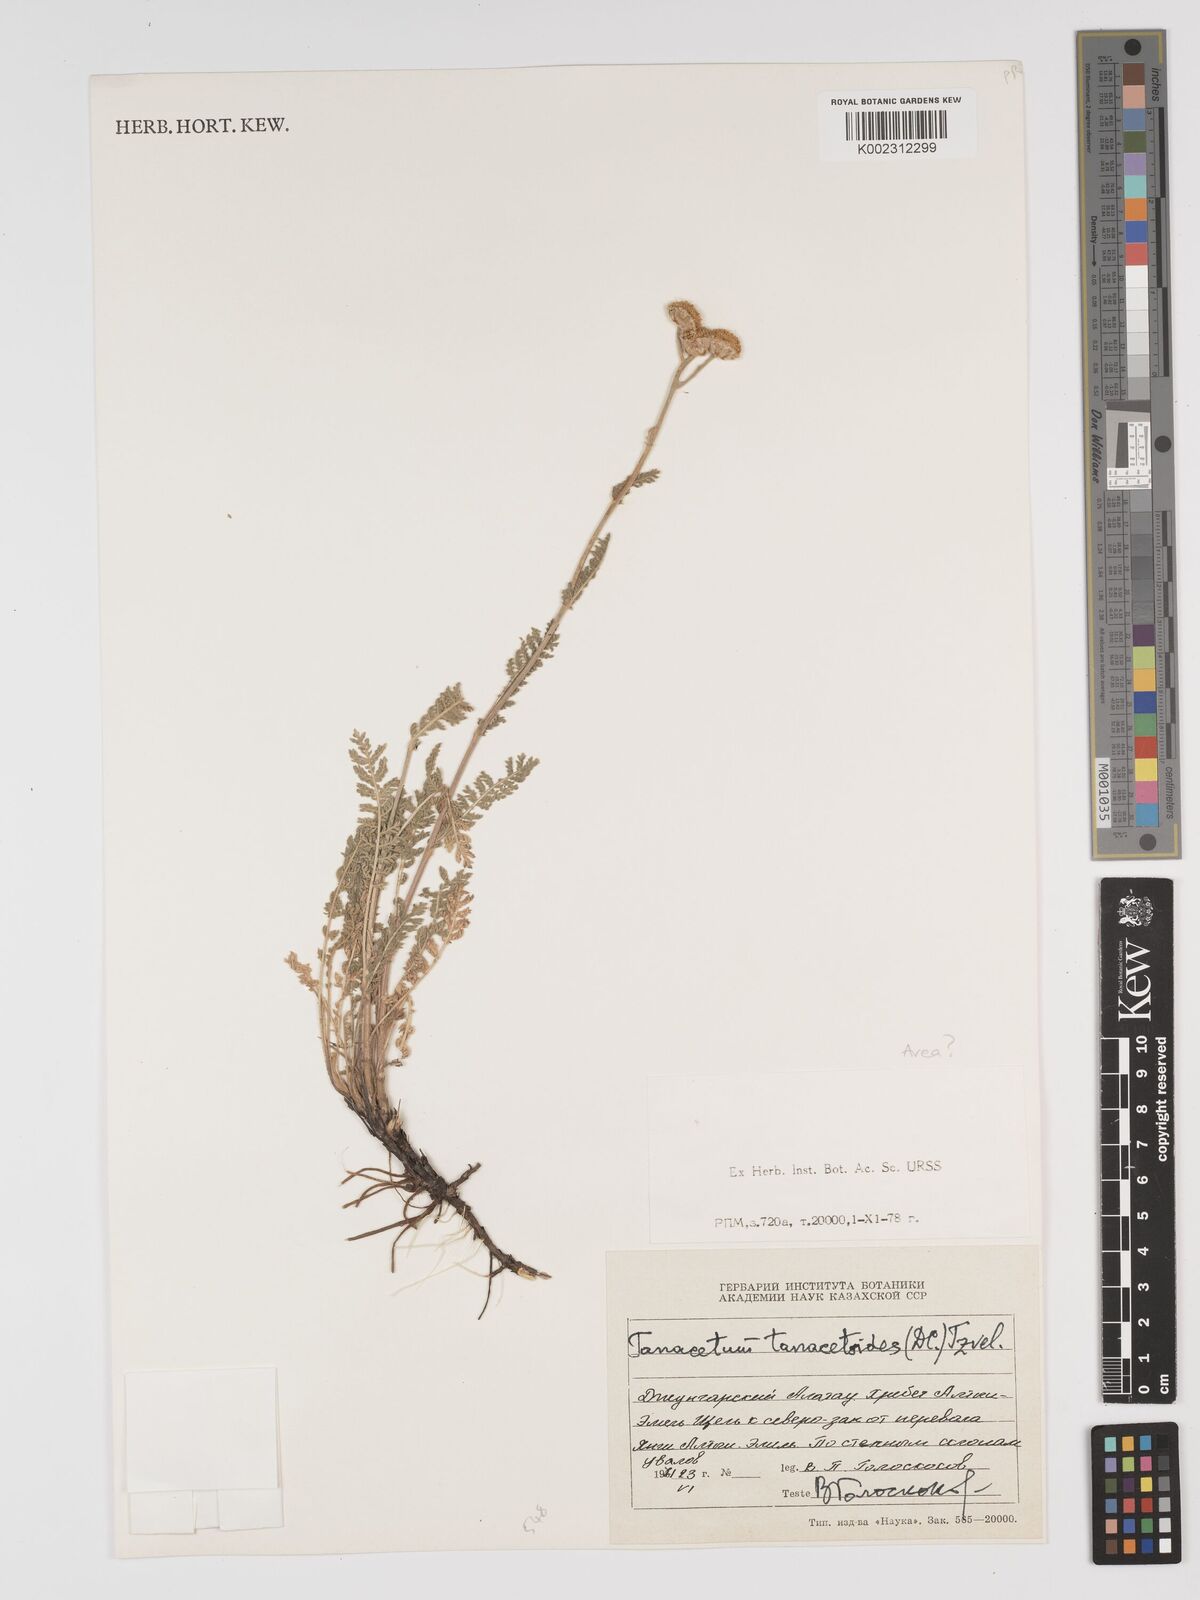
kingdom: Plantae
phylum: Tracheophyta
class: Magnoliopsida
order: Asterales
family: Asteraceae
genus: Tanacetum
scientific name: Tanacetum tanacetoides
